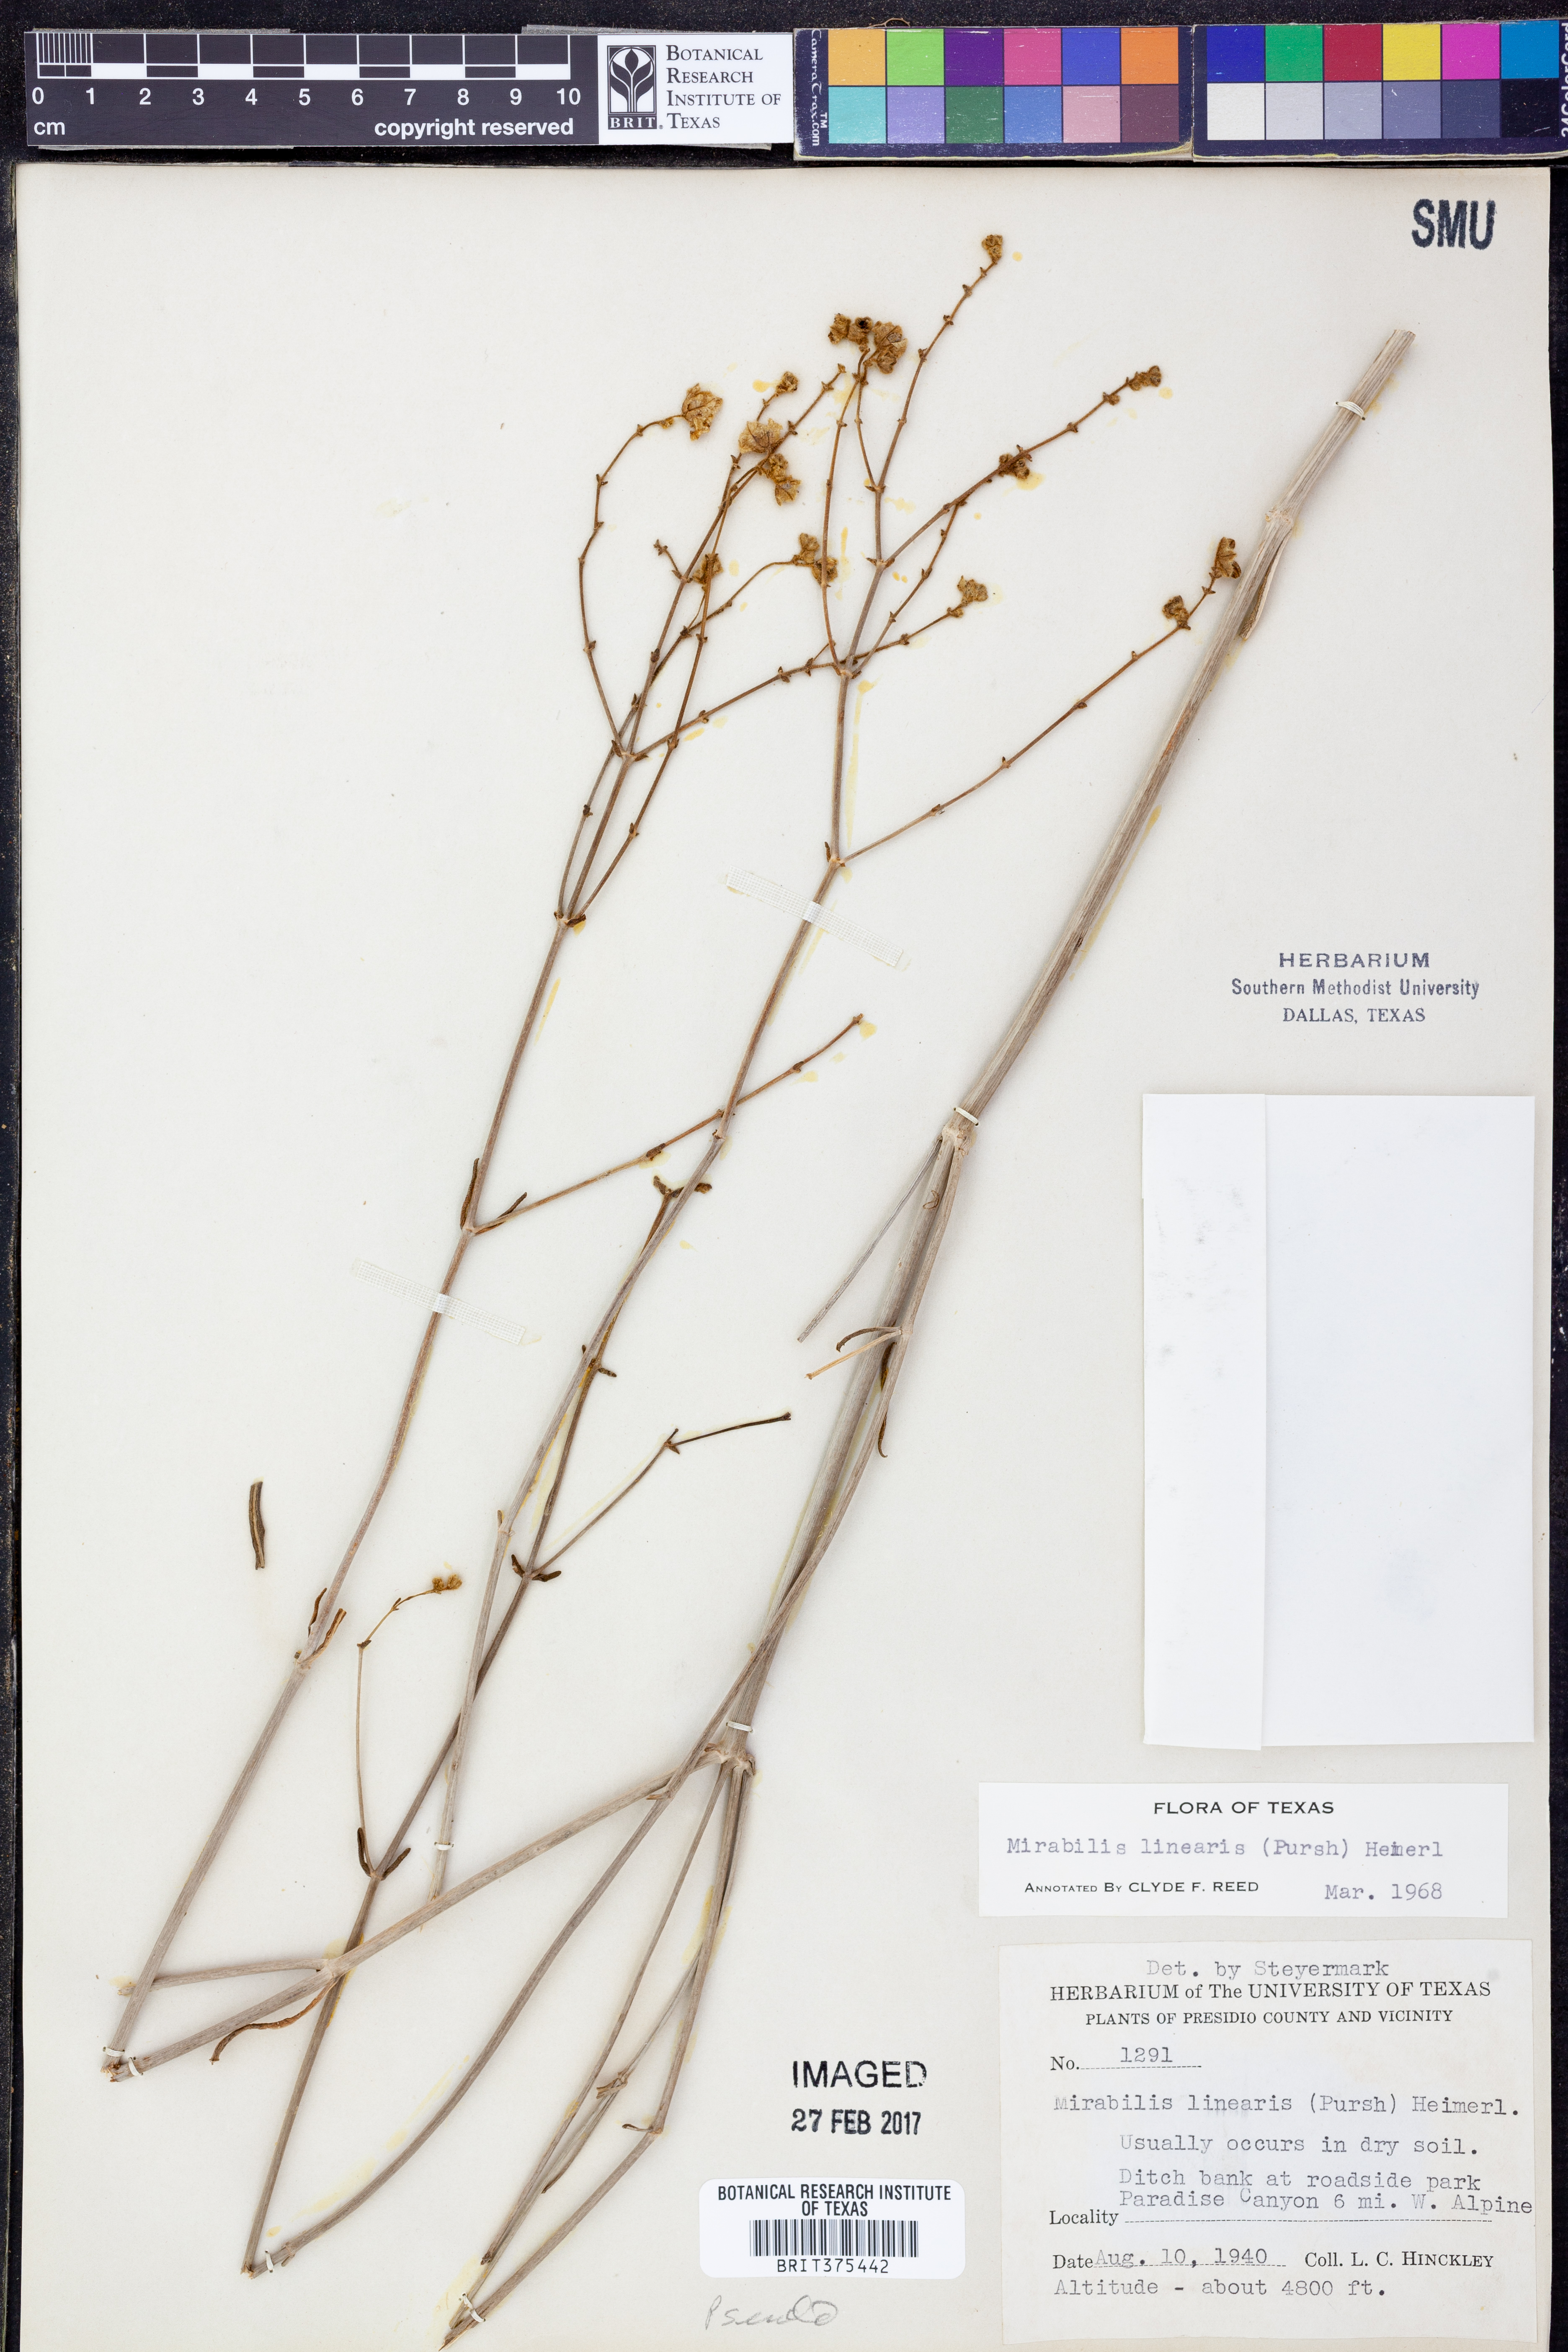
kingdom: Plantae
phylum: Tracheophyta
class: Magnoliopsida
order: Caryophyllales
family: Nyctaginaceae
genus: Mirabilis
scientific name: Mirabilis linearis
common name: Linear-leaved four-o'clock
